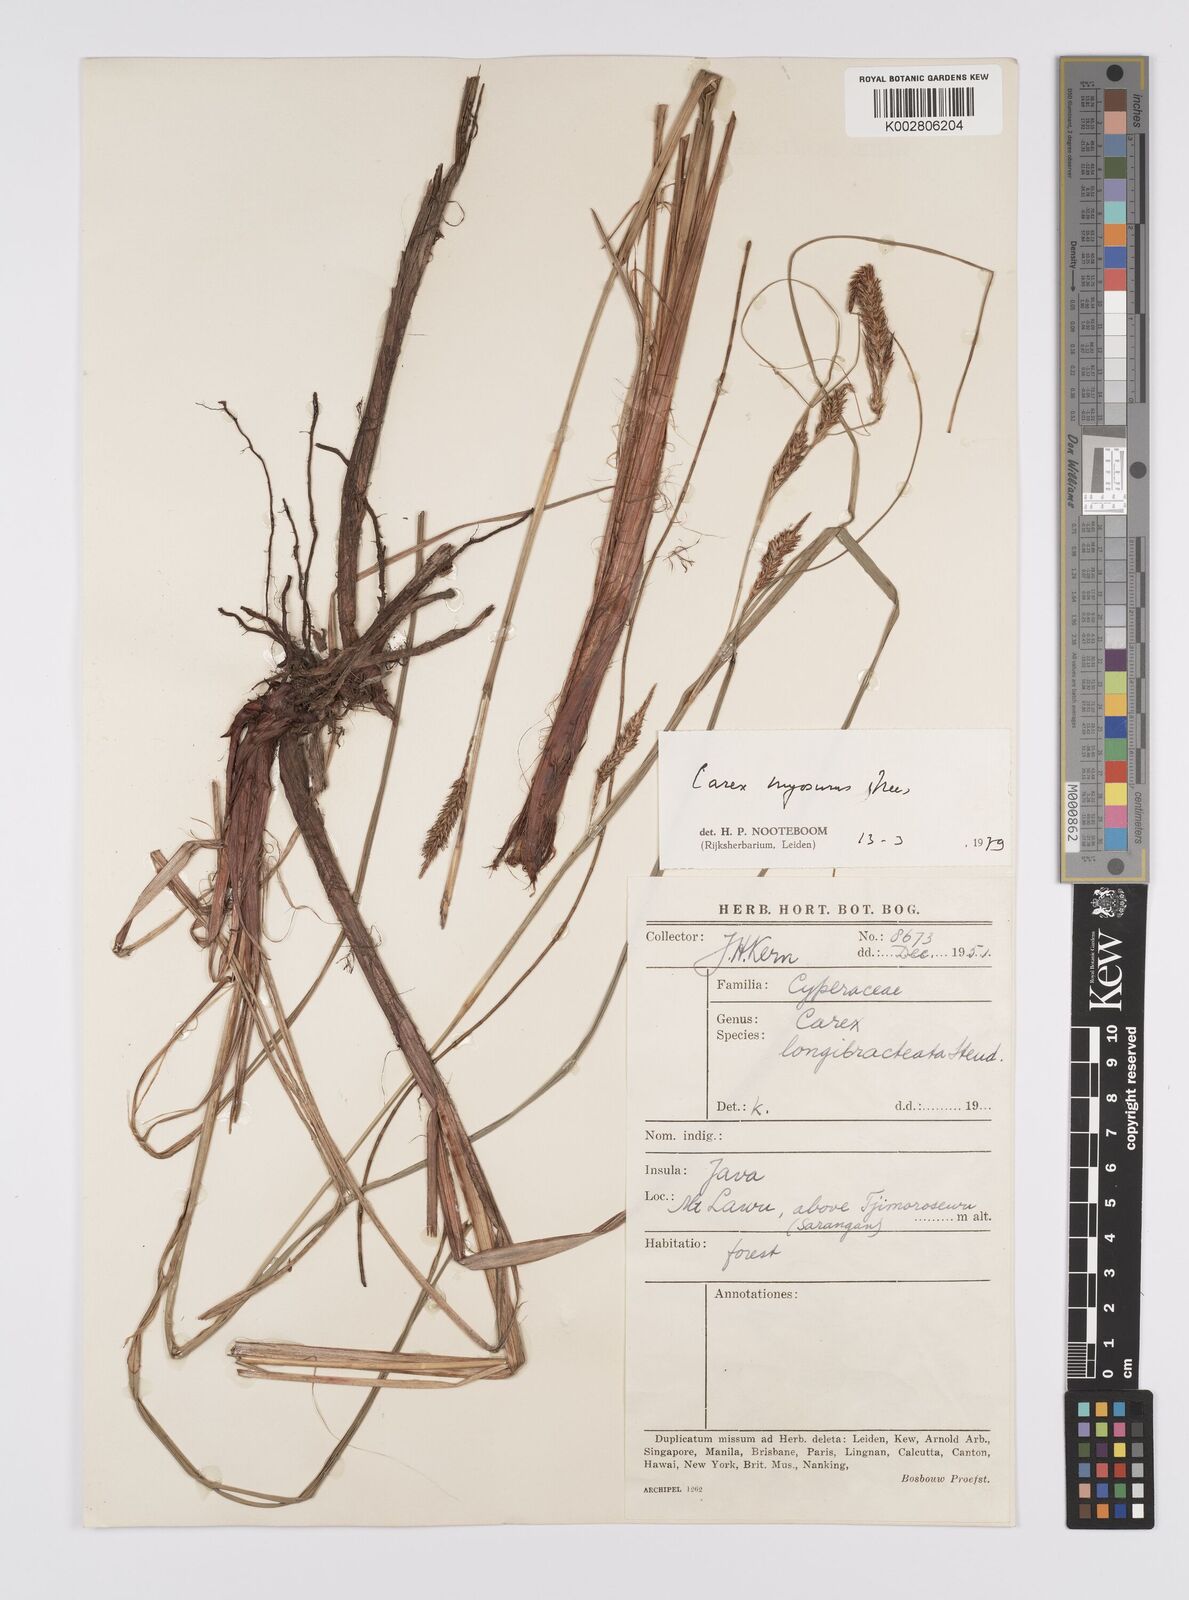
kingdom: Plantae
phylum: Tracheophyta
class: Liliopsida
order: Poales
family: Cyperaceae
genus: Carex
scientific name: Carex myosurus
